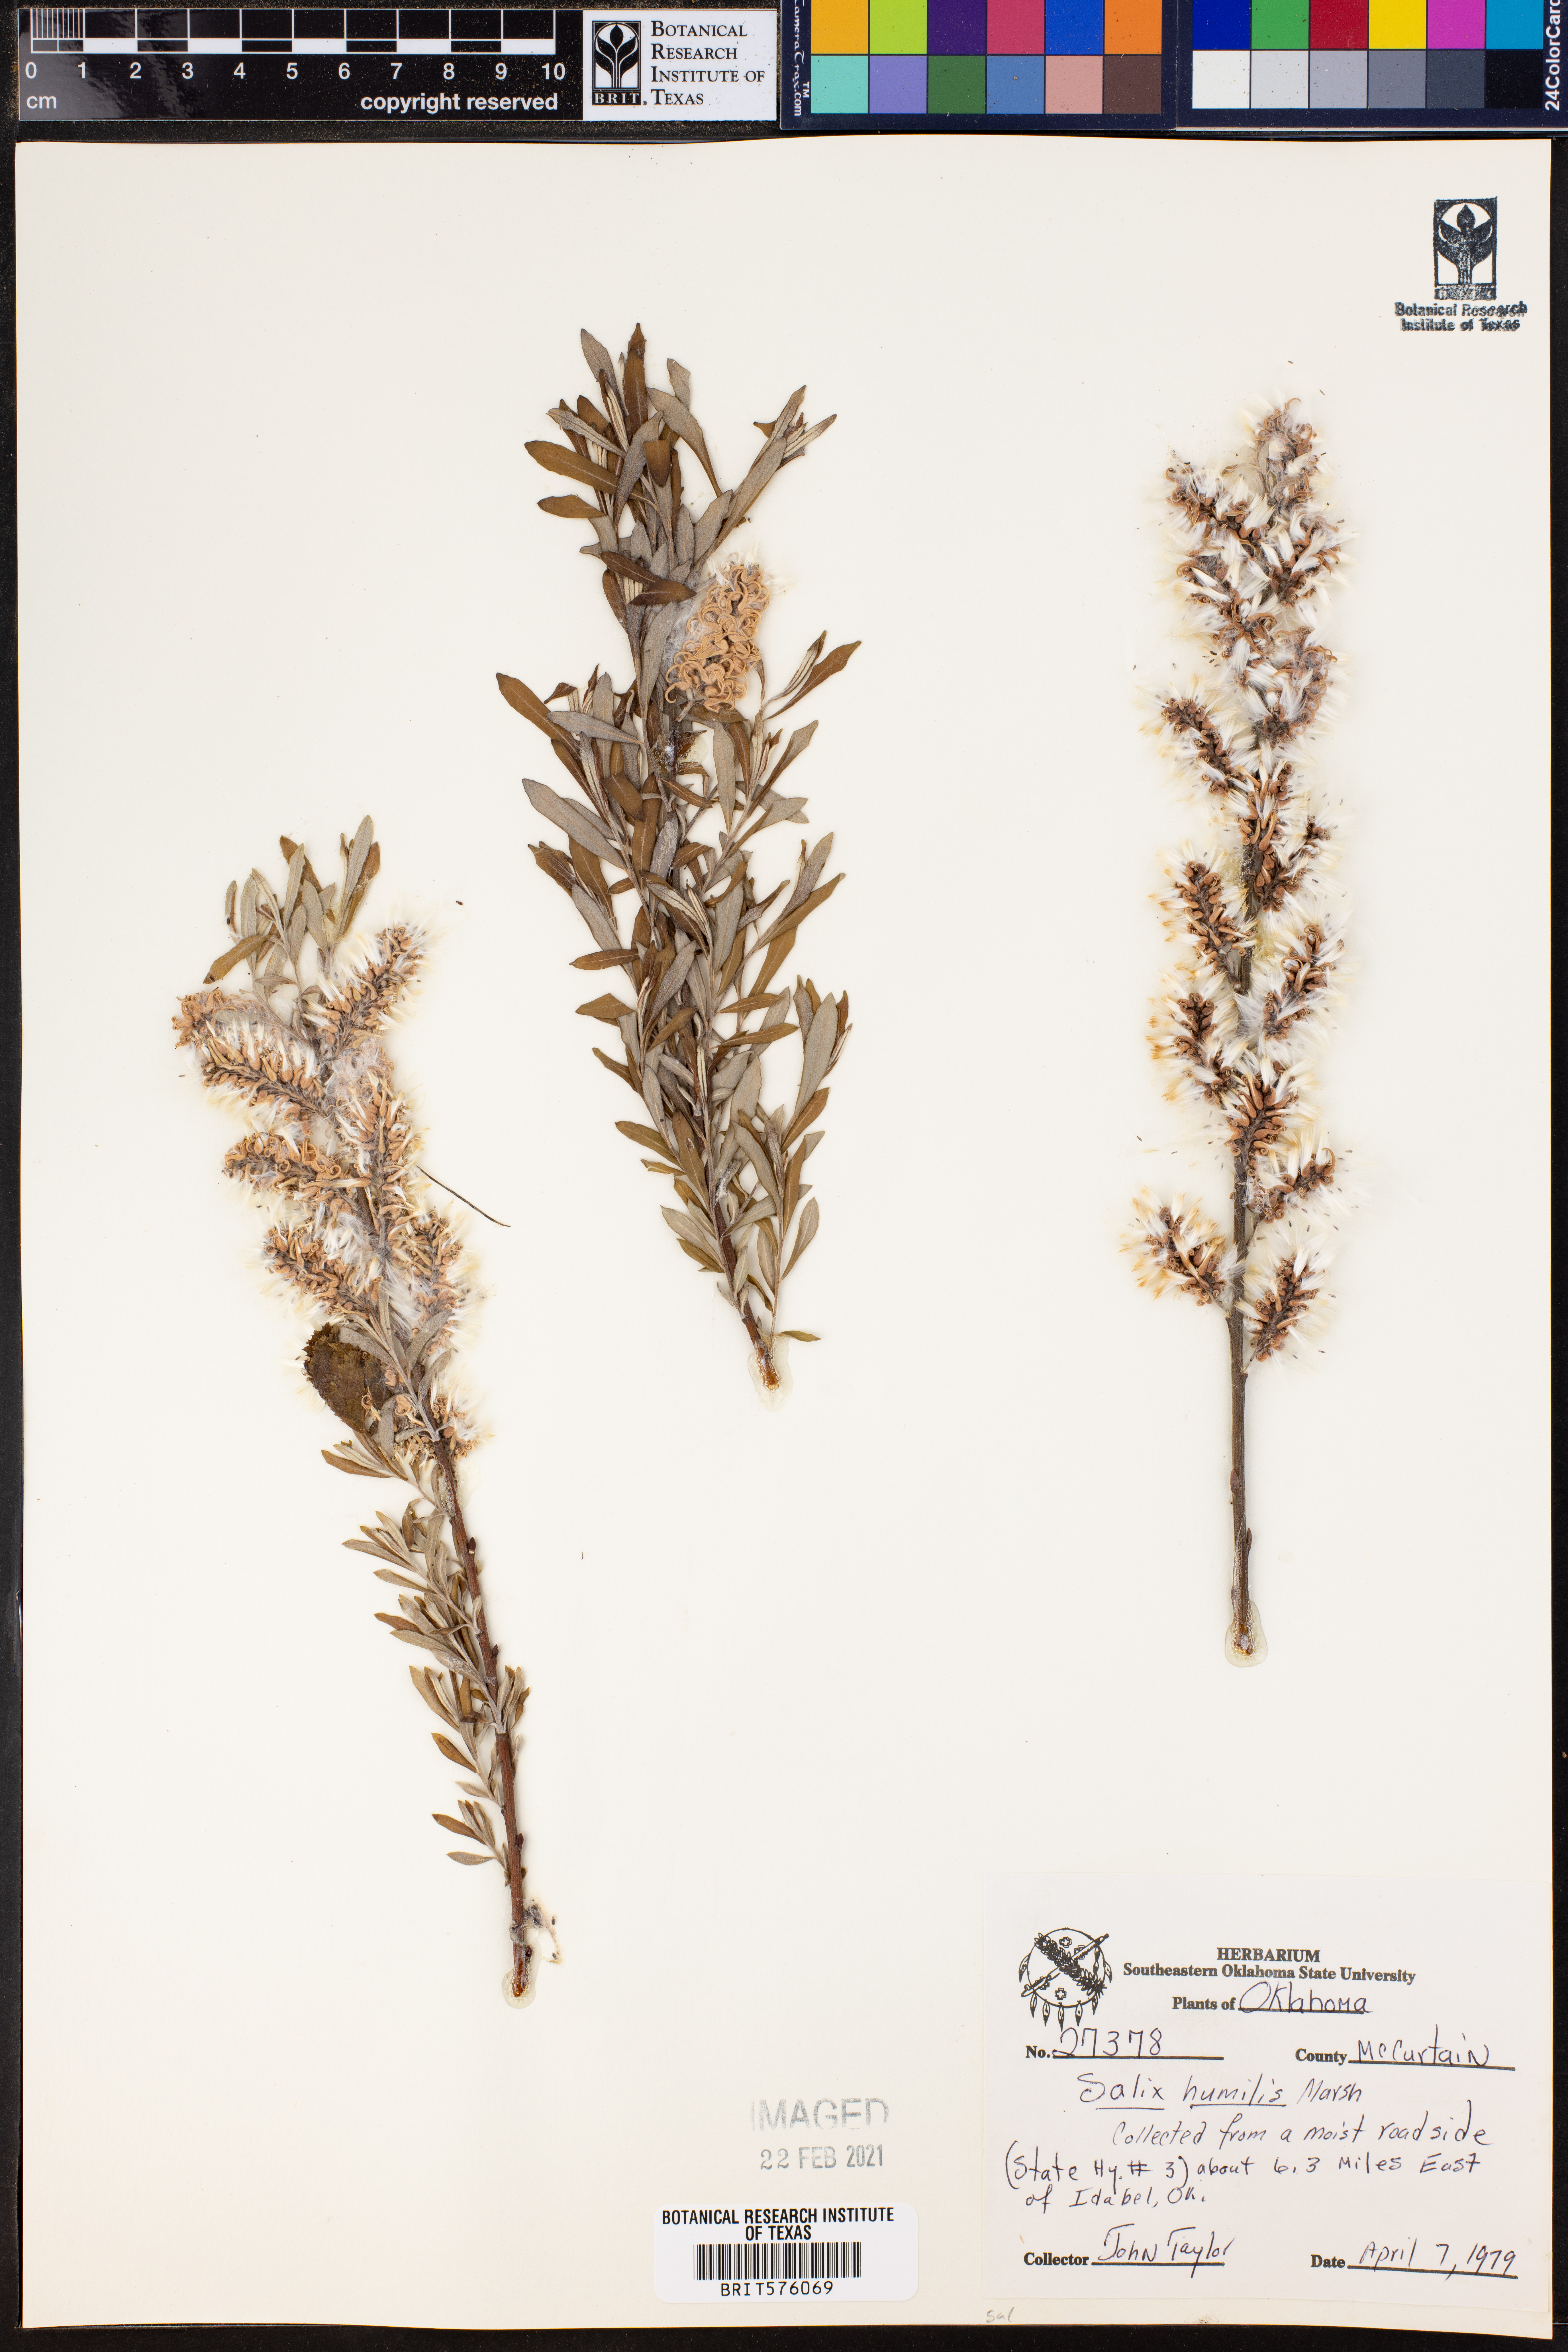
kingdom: Plantae
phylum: Tracheophyta
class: Magnoliopsida
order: Malpighiales
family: Salicaceae
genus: Salix
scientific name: Salix humilis
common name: Prairie willow
